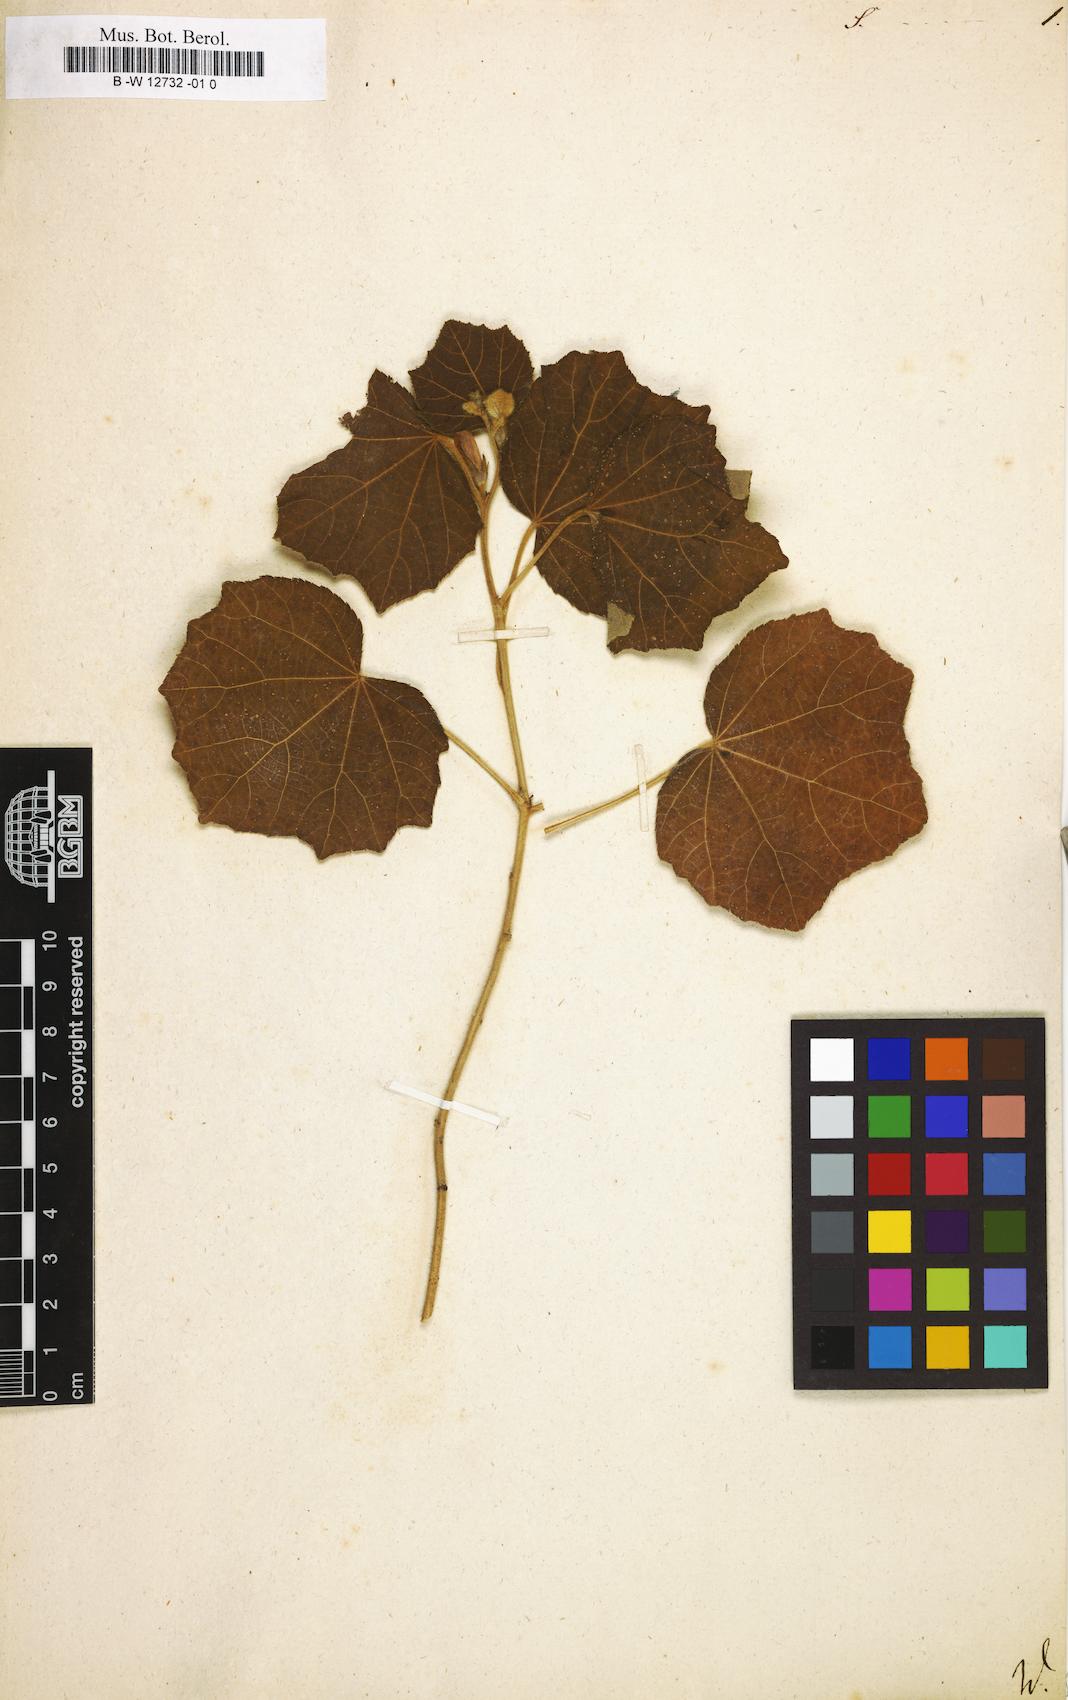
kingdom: Plantae
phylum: Tracheophyta
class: Magnoliopsida
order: Malvales
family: Malvaceae
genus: Sida
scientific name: Sida
